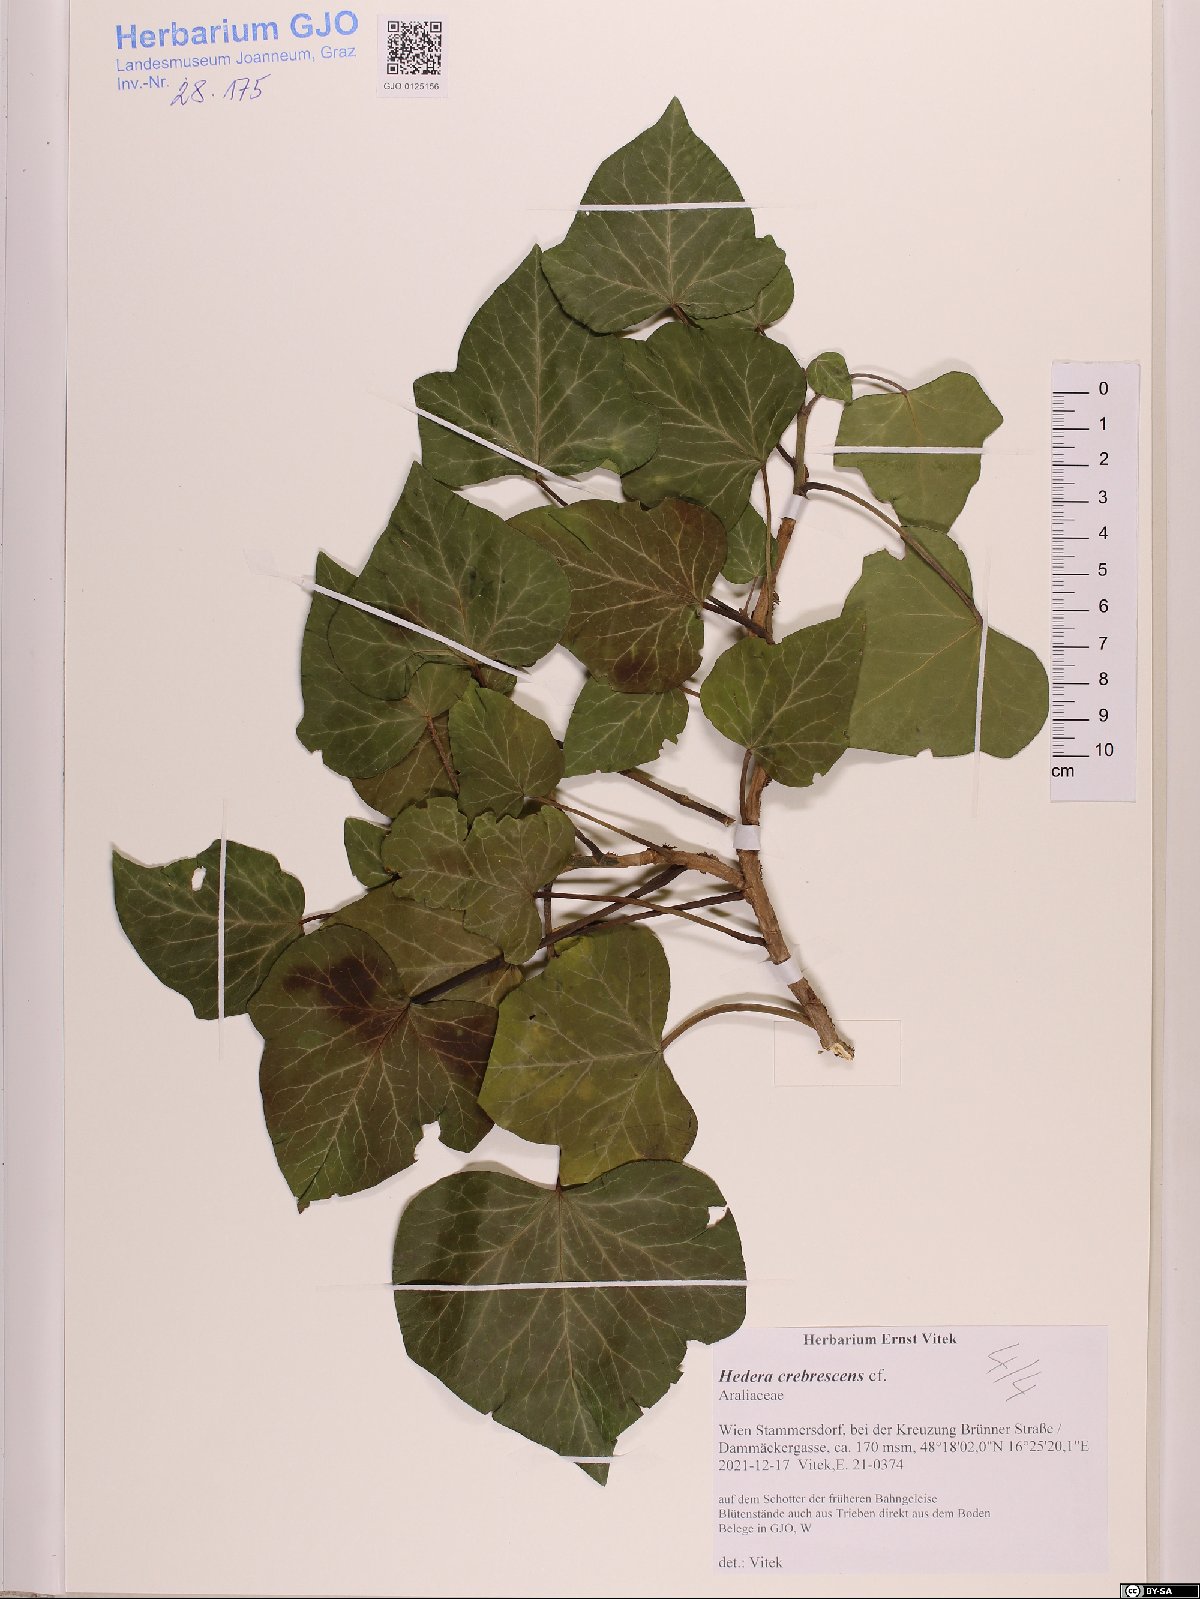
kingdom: Plantae
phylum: Tracheophyta
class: Magnoliopsida
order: Apiales
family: Araliaceae
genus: Hedera
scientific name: Hedera crebrescens
